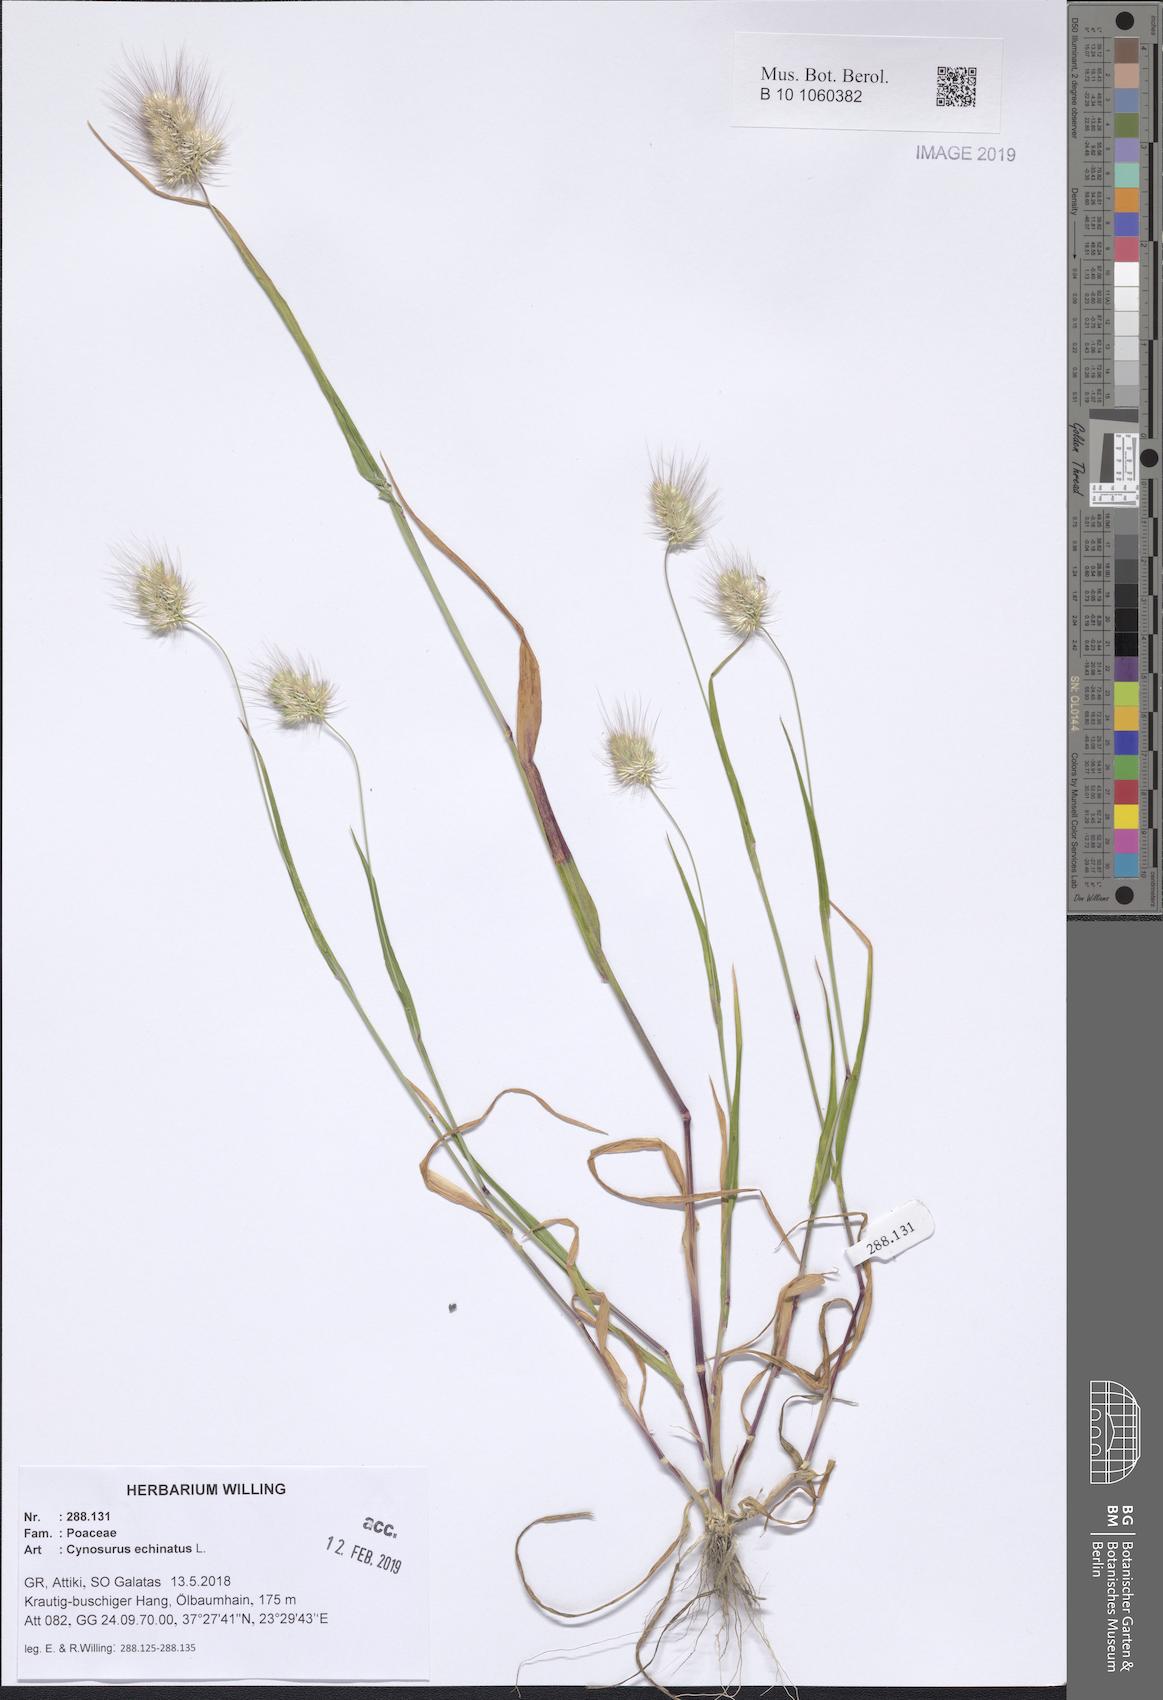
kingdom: Plantae
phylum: Tracheophyta
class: Liliopsida
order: Poales
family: Poaceae
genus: Cynosurus
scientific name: Cynosurus echinatus
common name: Rough dog's-tail
